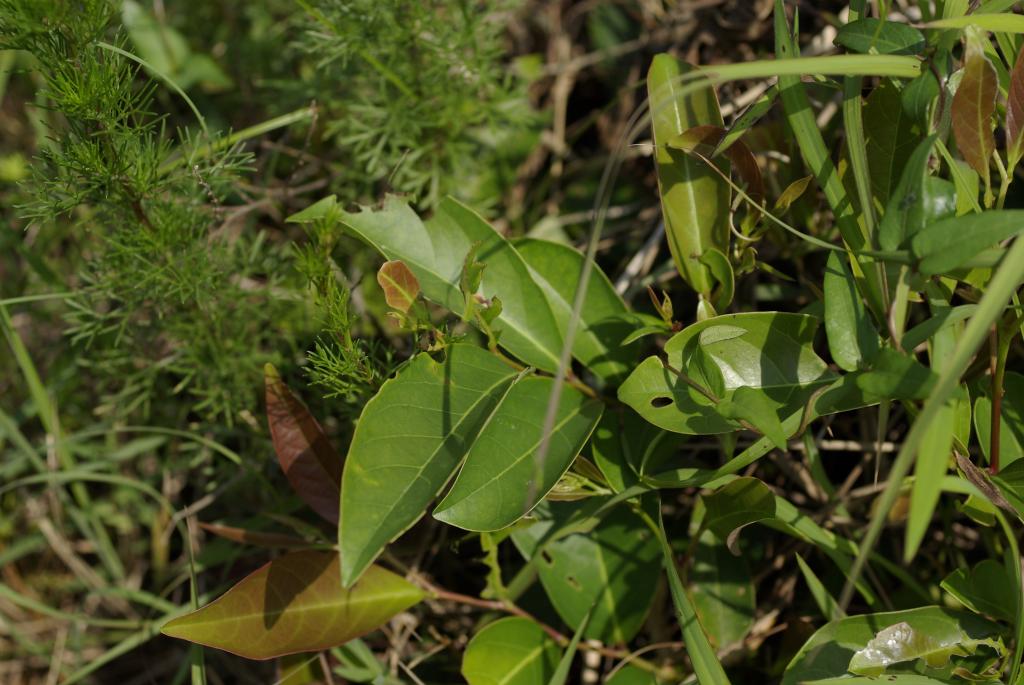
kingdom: Plantae
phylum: Tracheophyta
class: Magnoliopsida
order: Malpighiales
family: Phyllanthaceae
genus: Glochidion
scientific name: Glochidion rubrum
